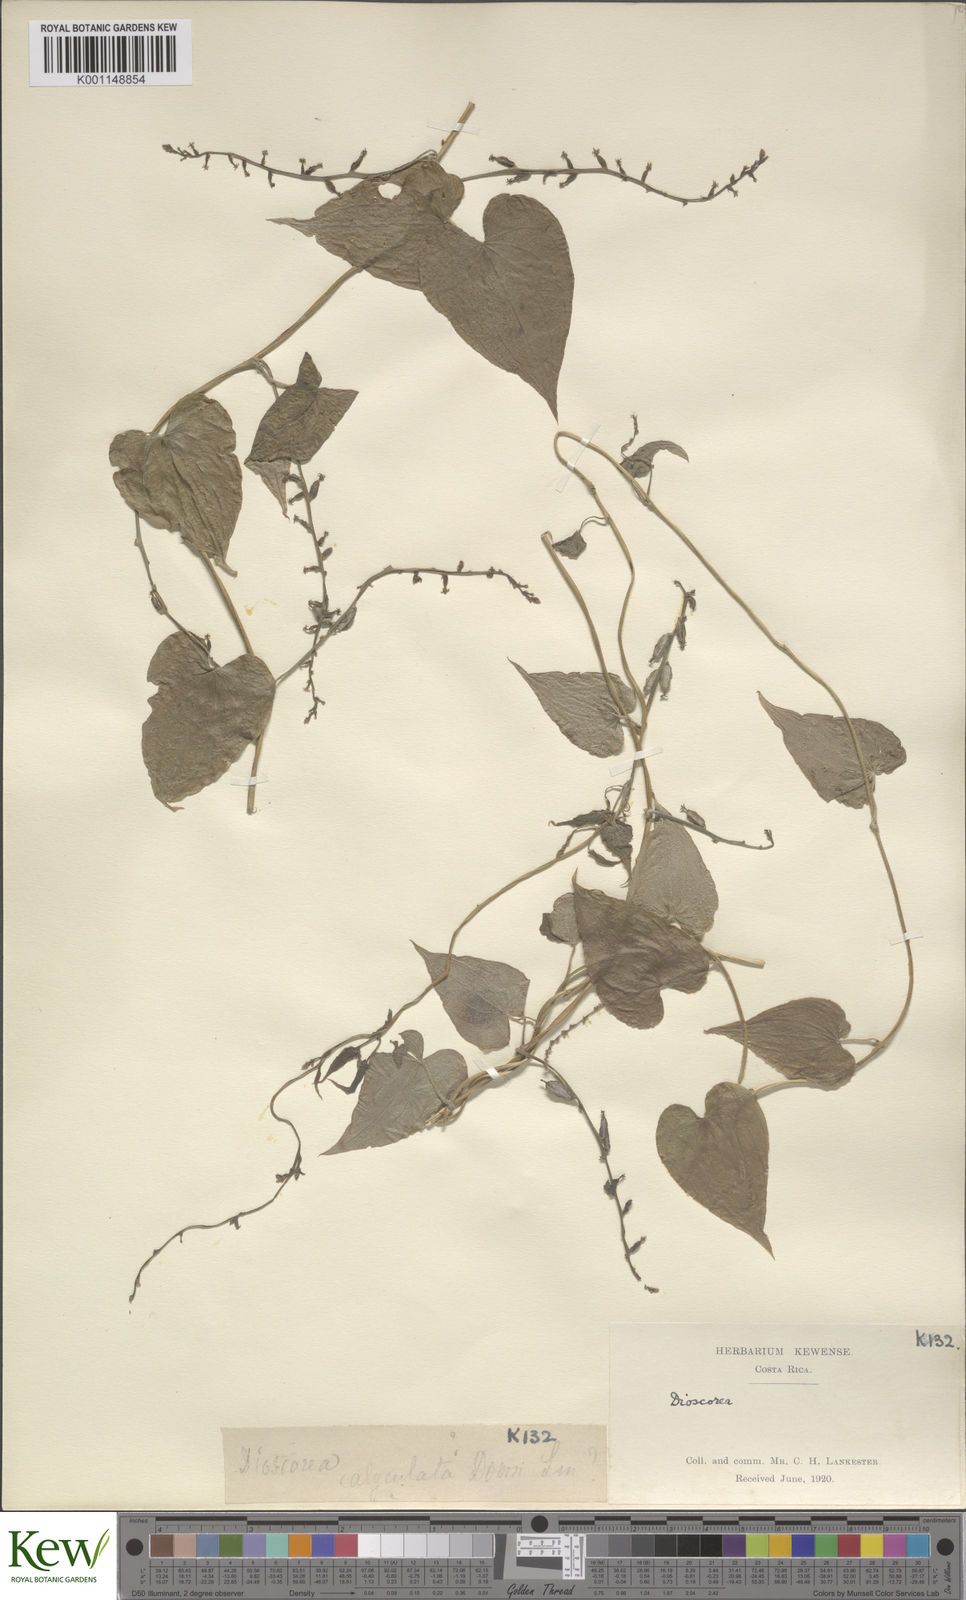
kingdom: Plantae
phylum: Tracheophyta
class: Liliopsida
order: Dioscoreales
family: Dioscoreaceae
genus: Dioscorea
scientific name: Dioscorea convolvulacea
